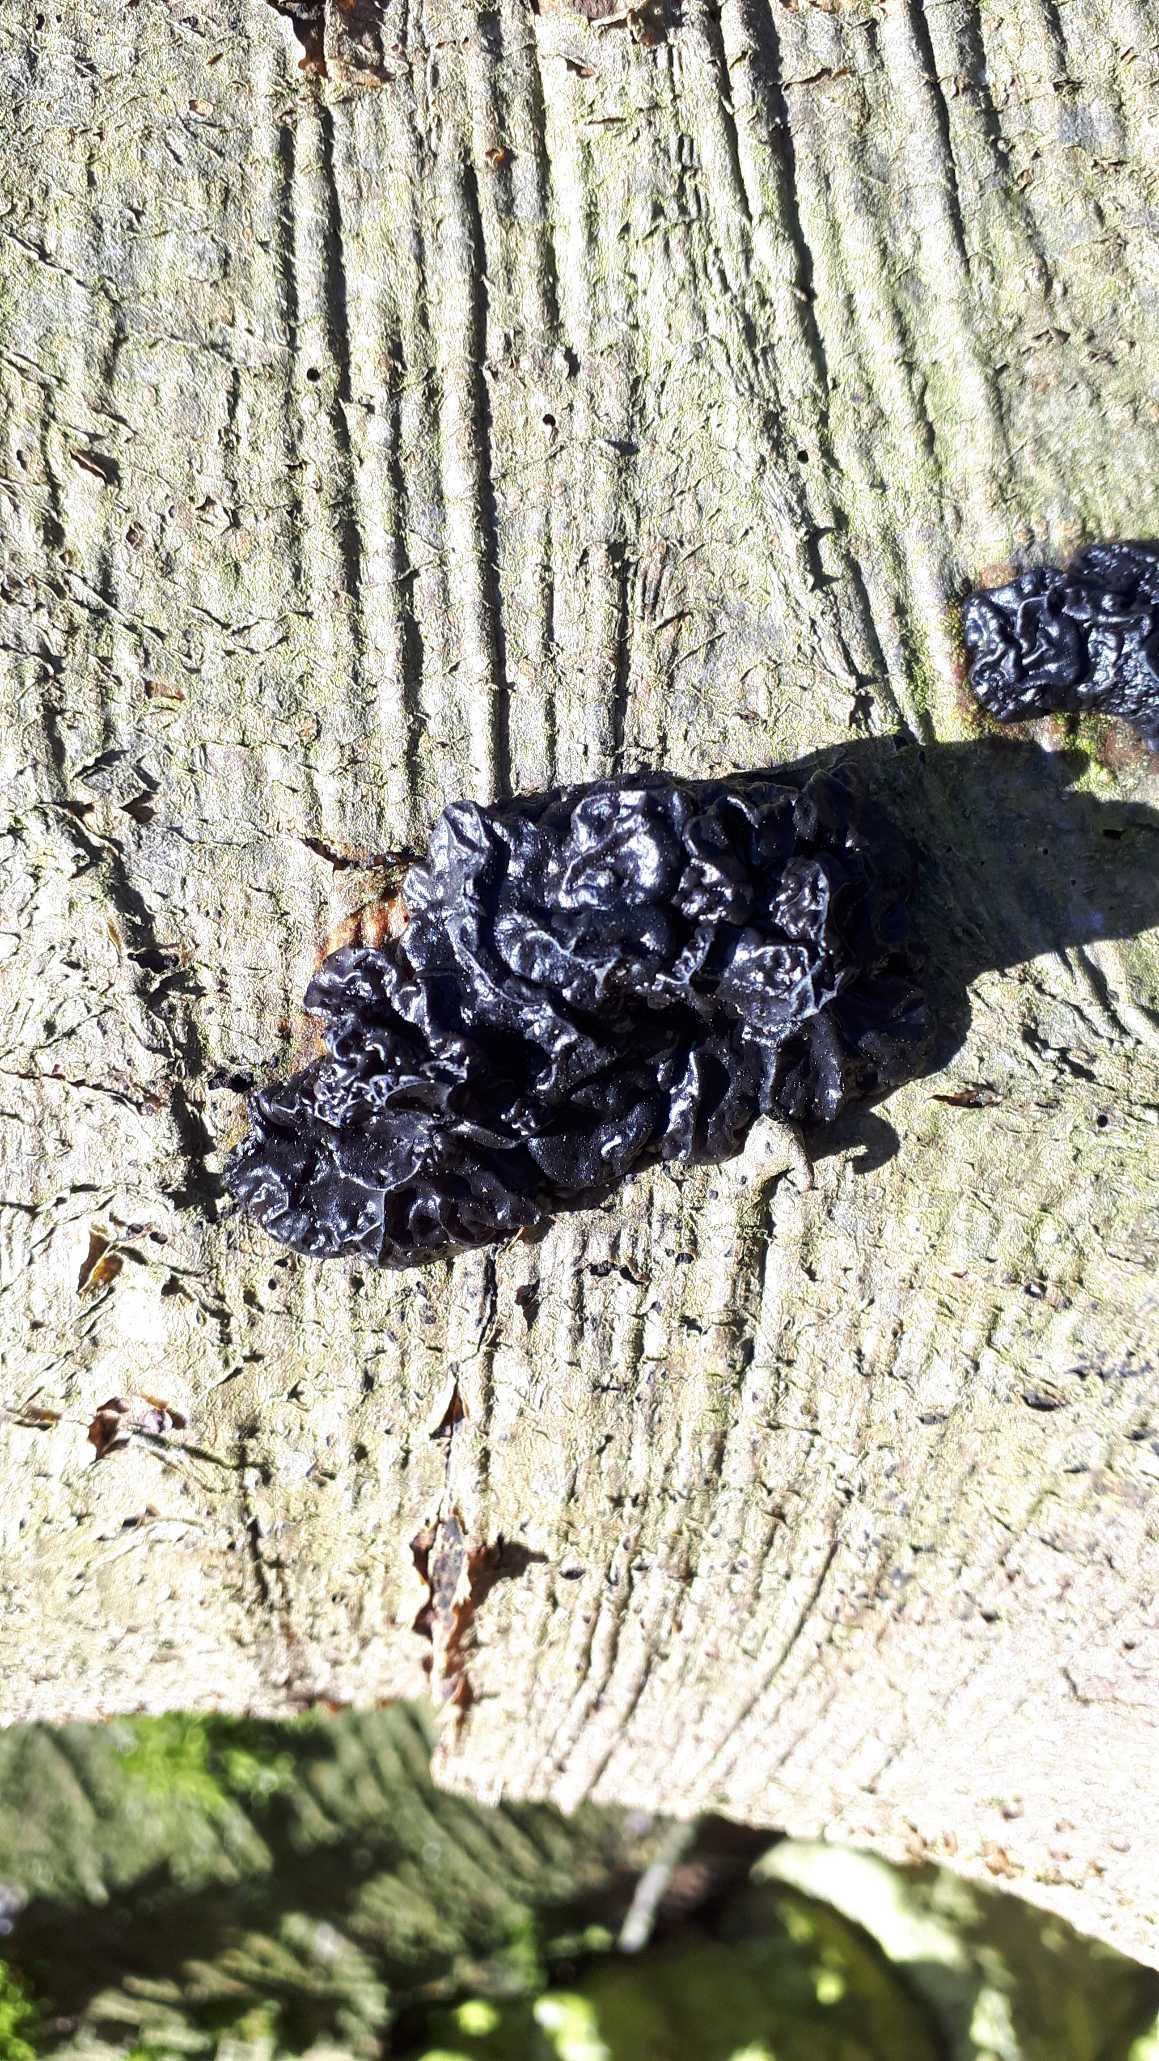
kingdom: Fungi
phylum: Basidiomycota
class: Agaricomycetes
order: Auriculariales
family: Auriculariaceae
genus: Exidia
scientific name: Exidia nigricans
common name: Almindelig bævretop
